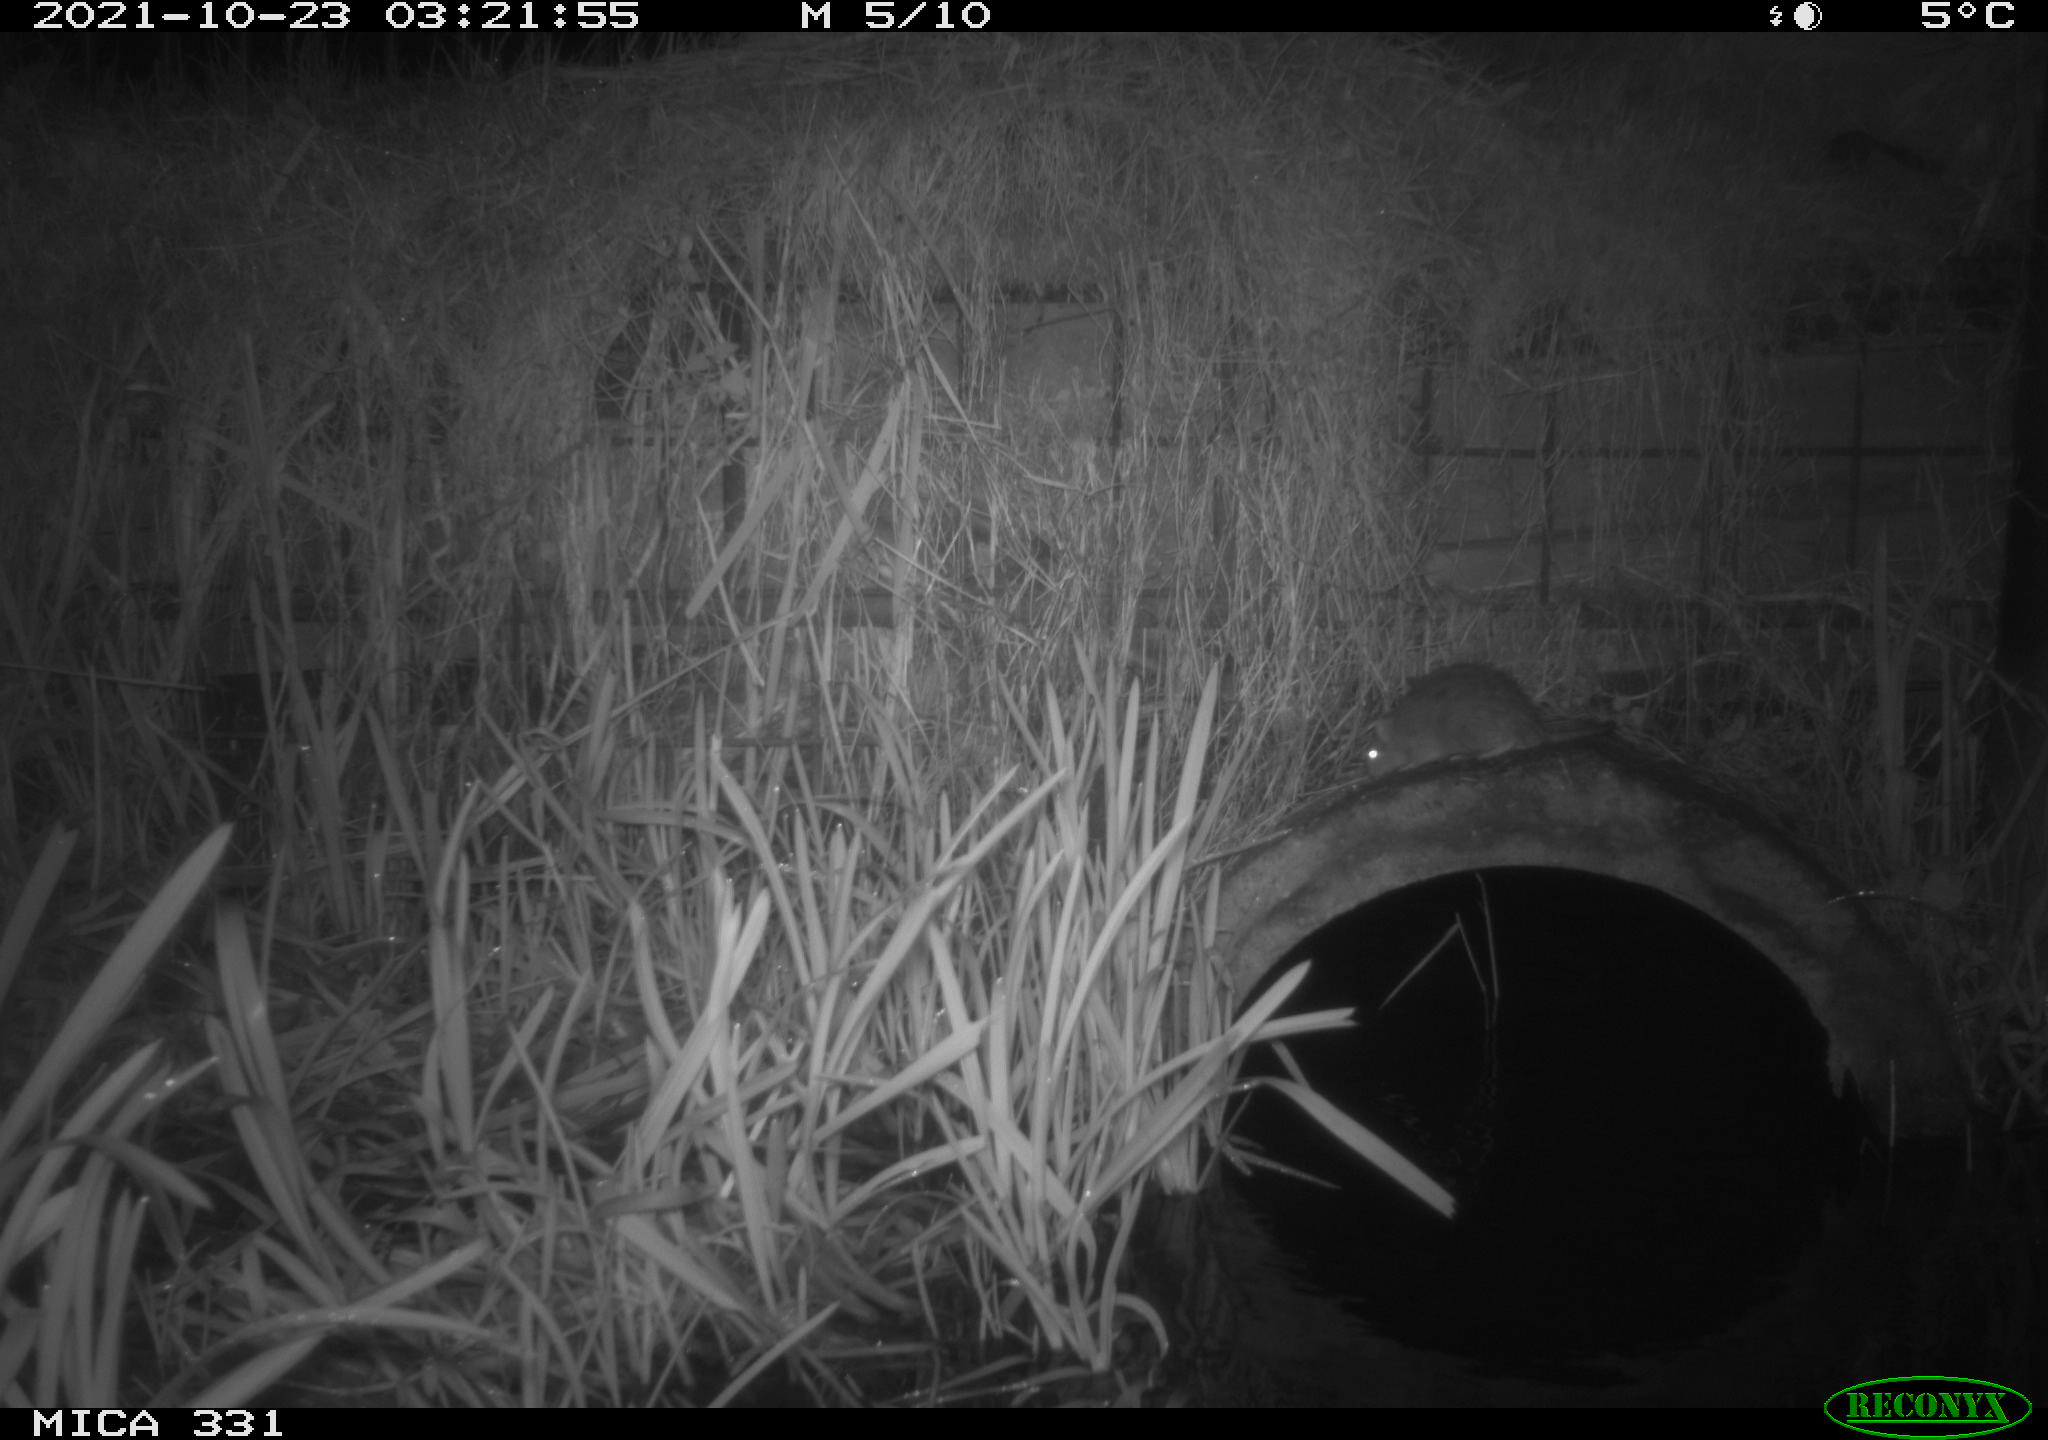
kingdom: Animalia
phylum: Chordata
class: Mammalia
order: Rodentia
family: Muridae
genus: Rattus
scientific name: Rattus norvegicus
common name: Brown rat
